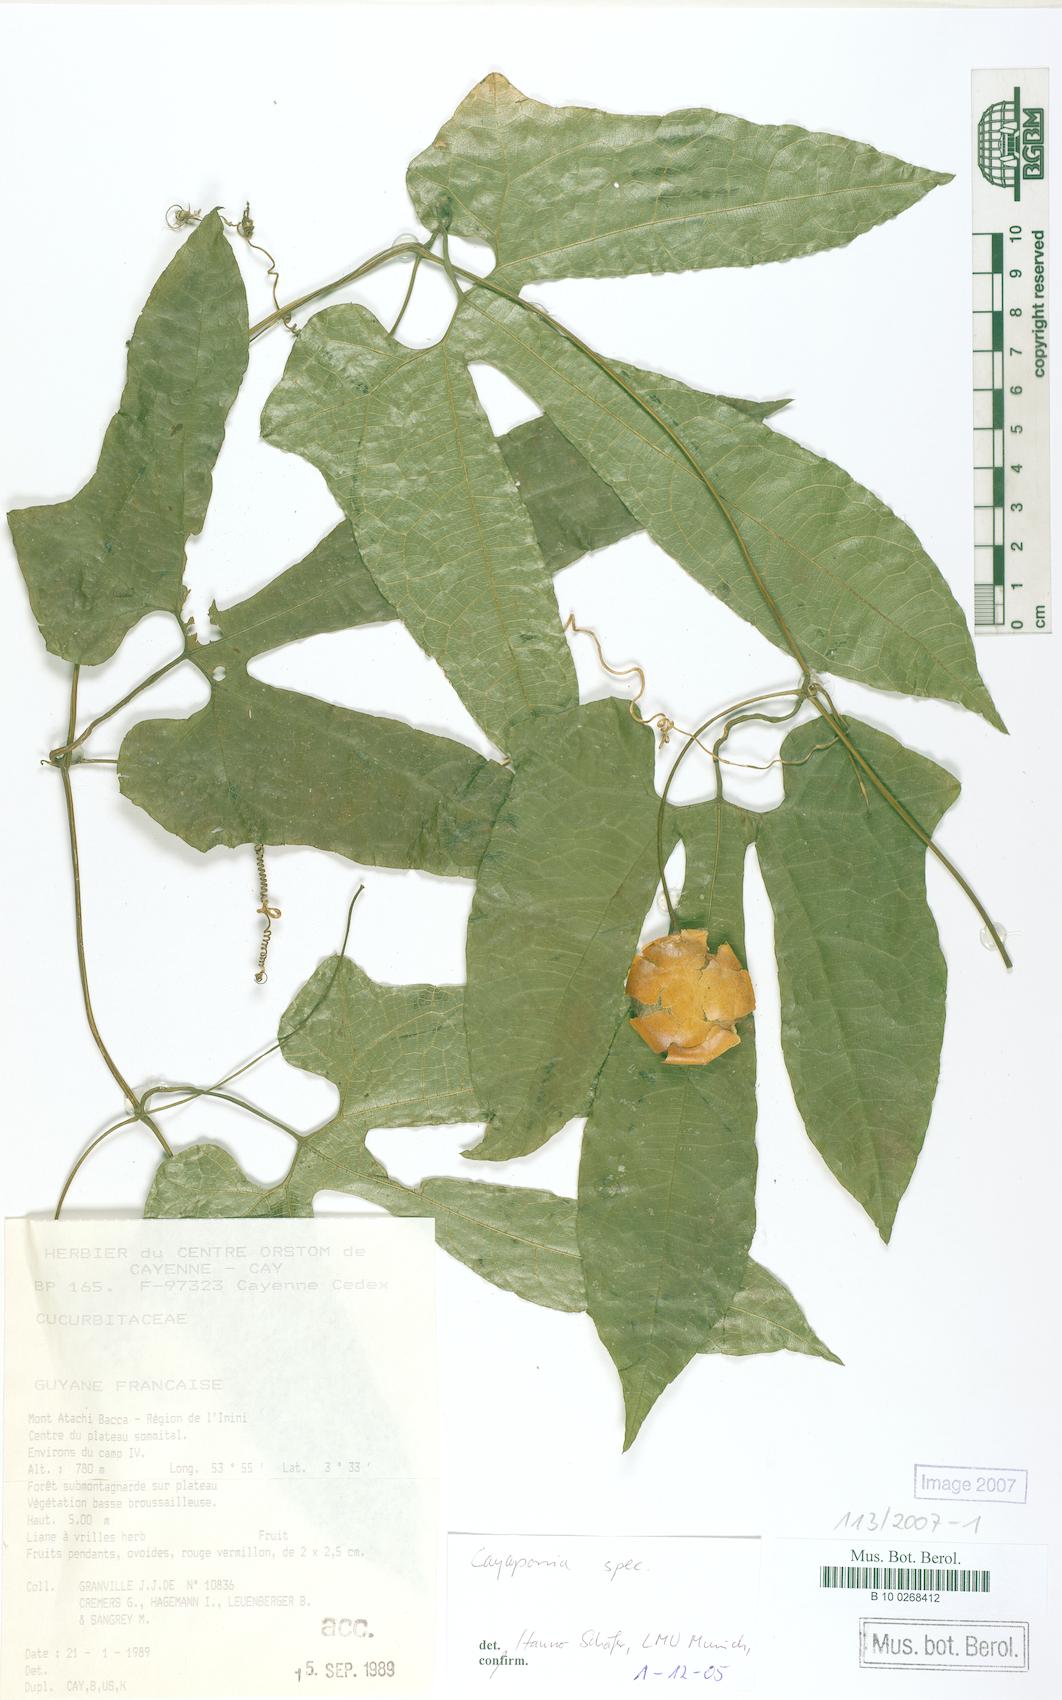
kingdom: Plantae
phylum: Tracheophyta
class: Magnoliopsida
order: Cucurbitales
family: Cucurbitaceae
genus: Cayaponia
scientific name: Cayaponia prunifera
